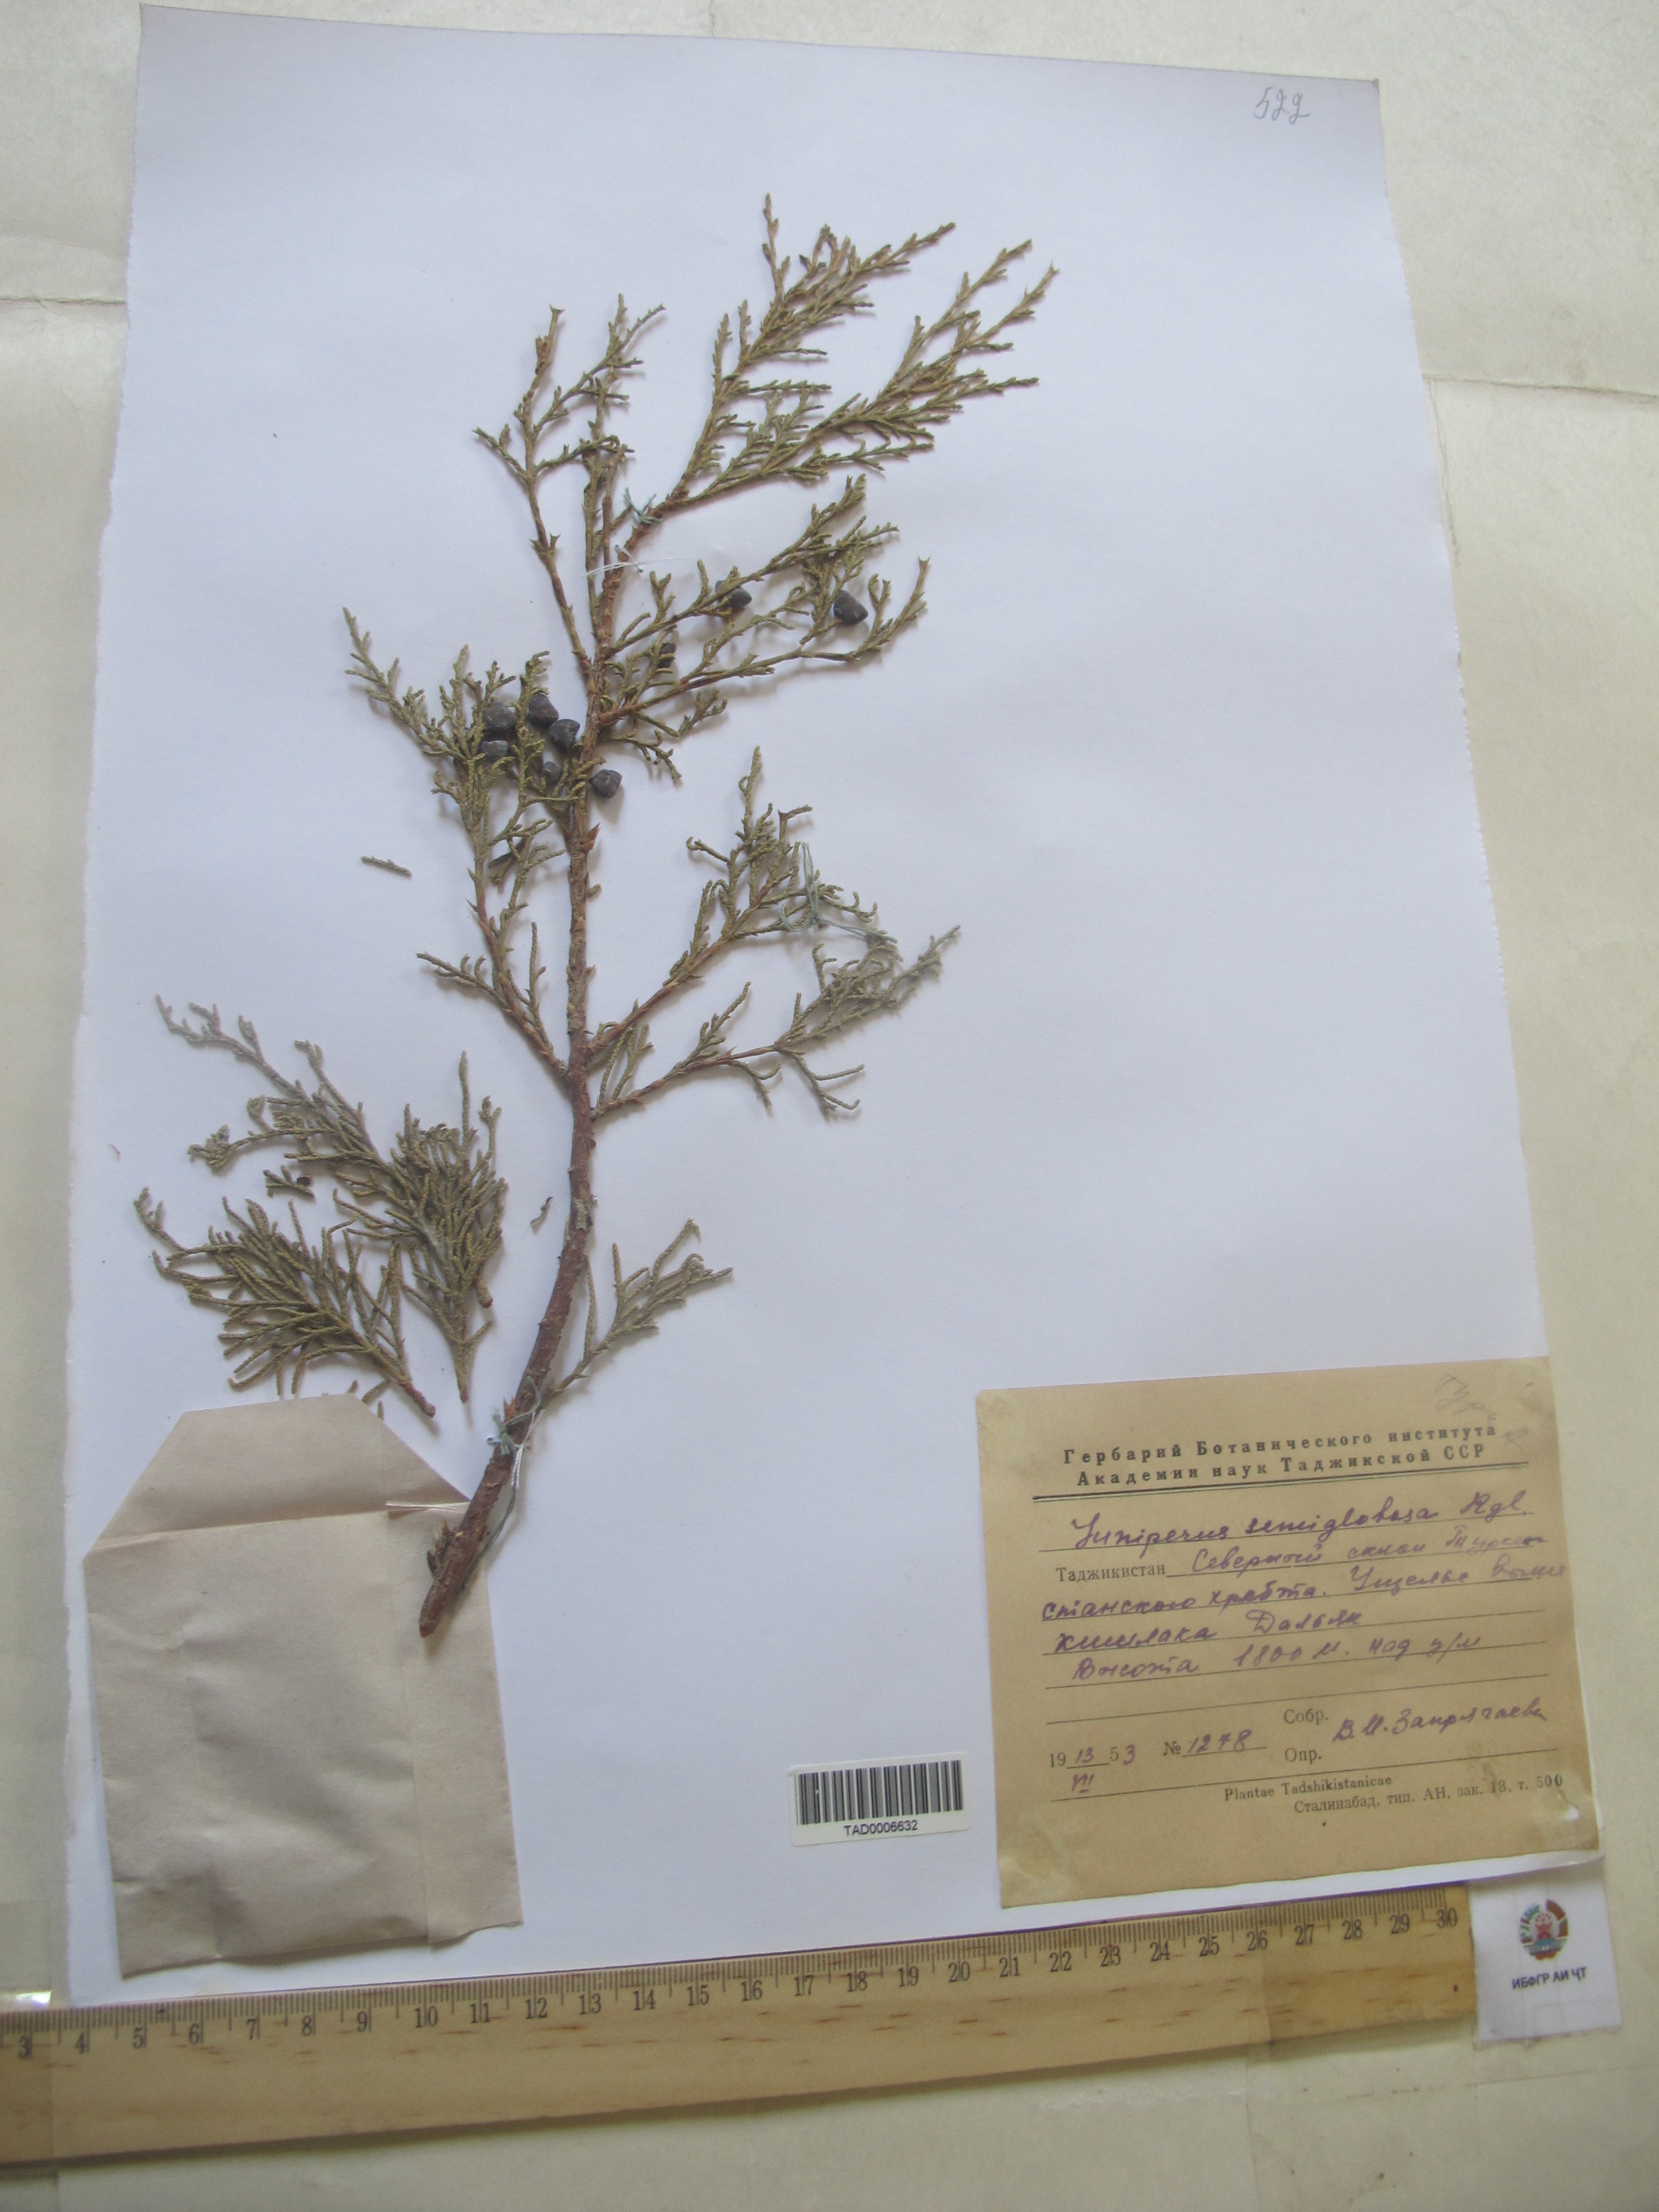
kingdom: Plantae
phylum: Tracheophyta
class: Pinopsida
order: Pinales
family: Cupressaceae
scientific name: Cupressaceae
